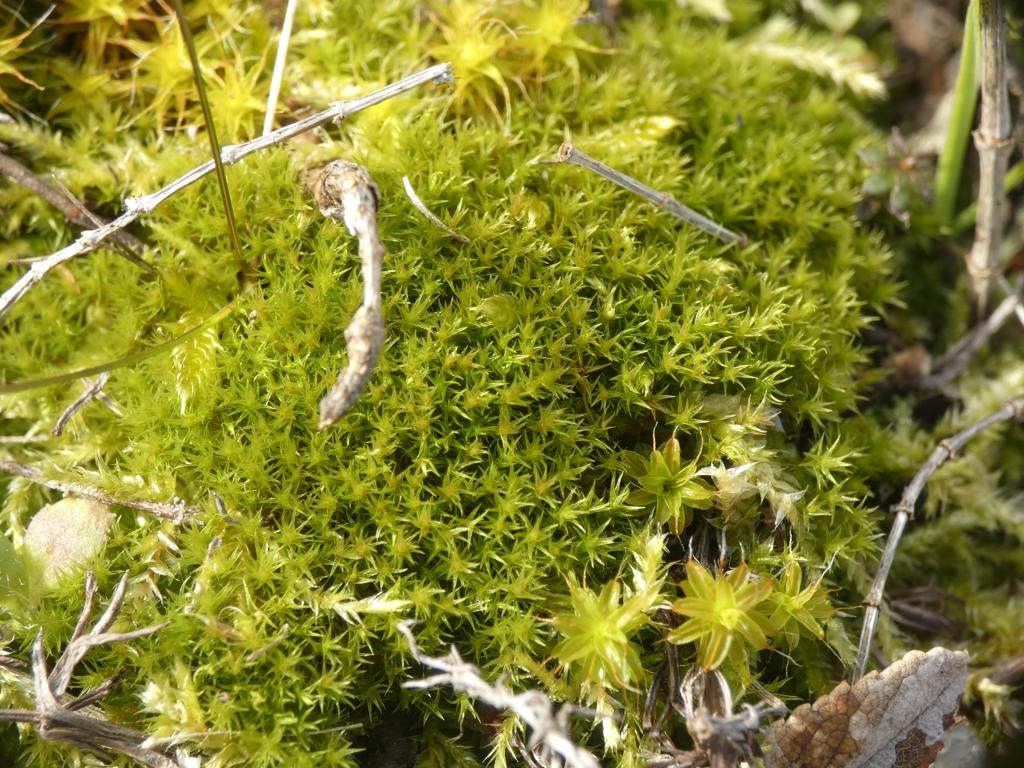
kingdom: Plantae
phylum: Bryophyta
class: Bryopsida
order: Dicranales
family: Ditrichaceae
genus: Ceratodon
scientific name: Ceratodon purpureus
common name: Rød horntand
